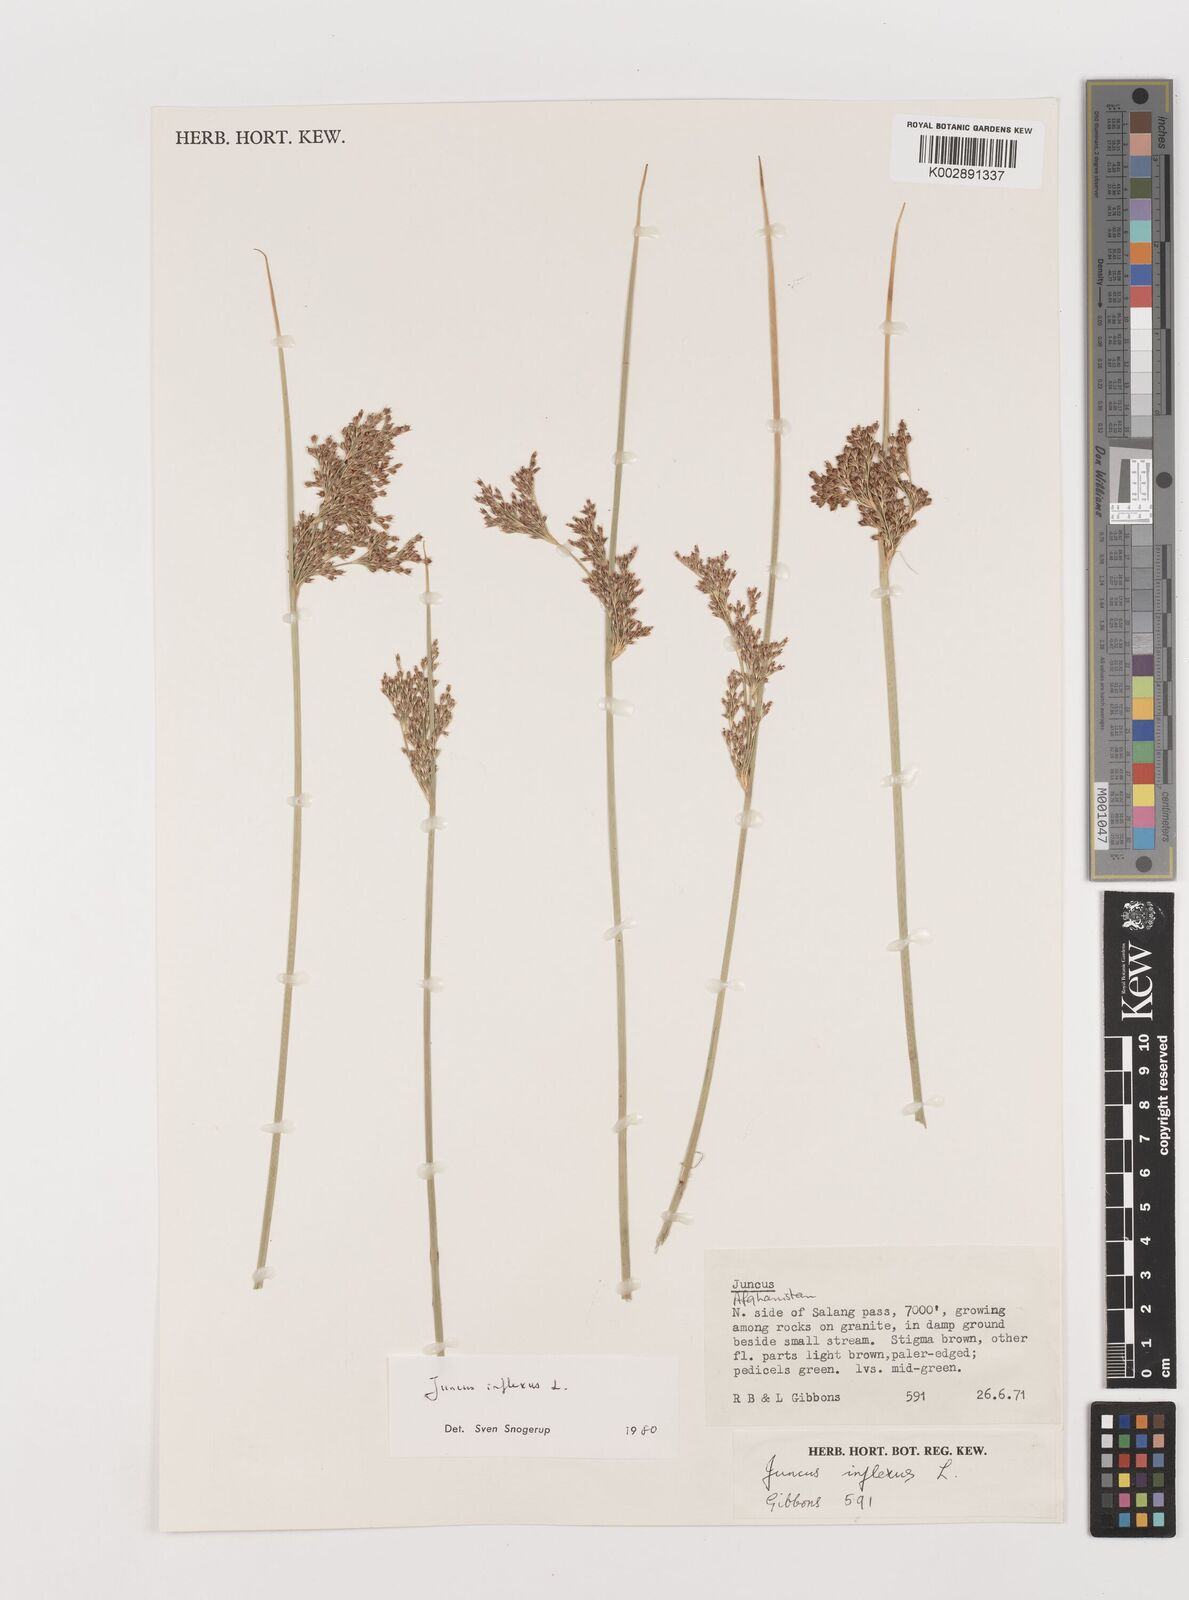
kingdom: Plantae
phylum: Tracheophyta
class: Liliopsida
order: Poales
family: Juncaceae
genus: Juncus
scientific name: Juncus inflexus
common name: Hard rush
